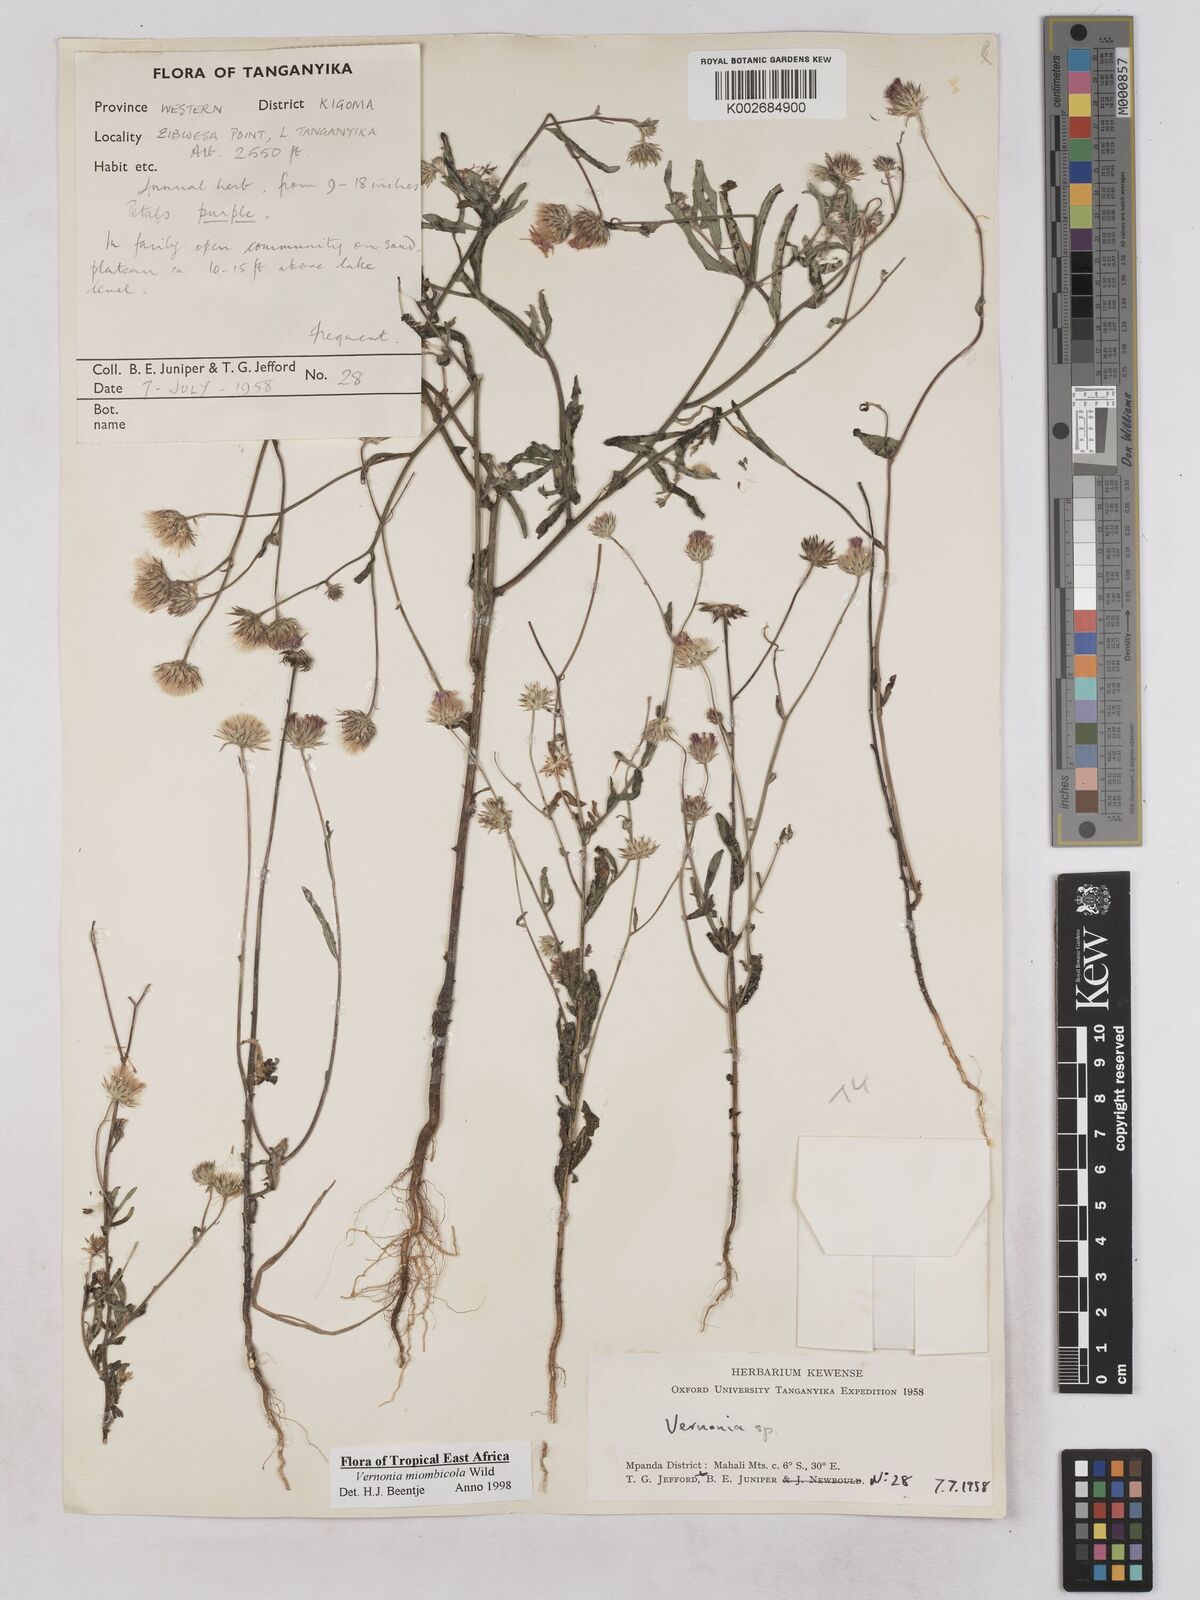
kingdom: Plantae
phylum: Tracheophyta
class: Magnoliopsida
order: Asterales
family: Asteraceae
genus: Vernonia
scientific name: Vernonia miombicola
